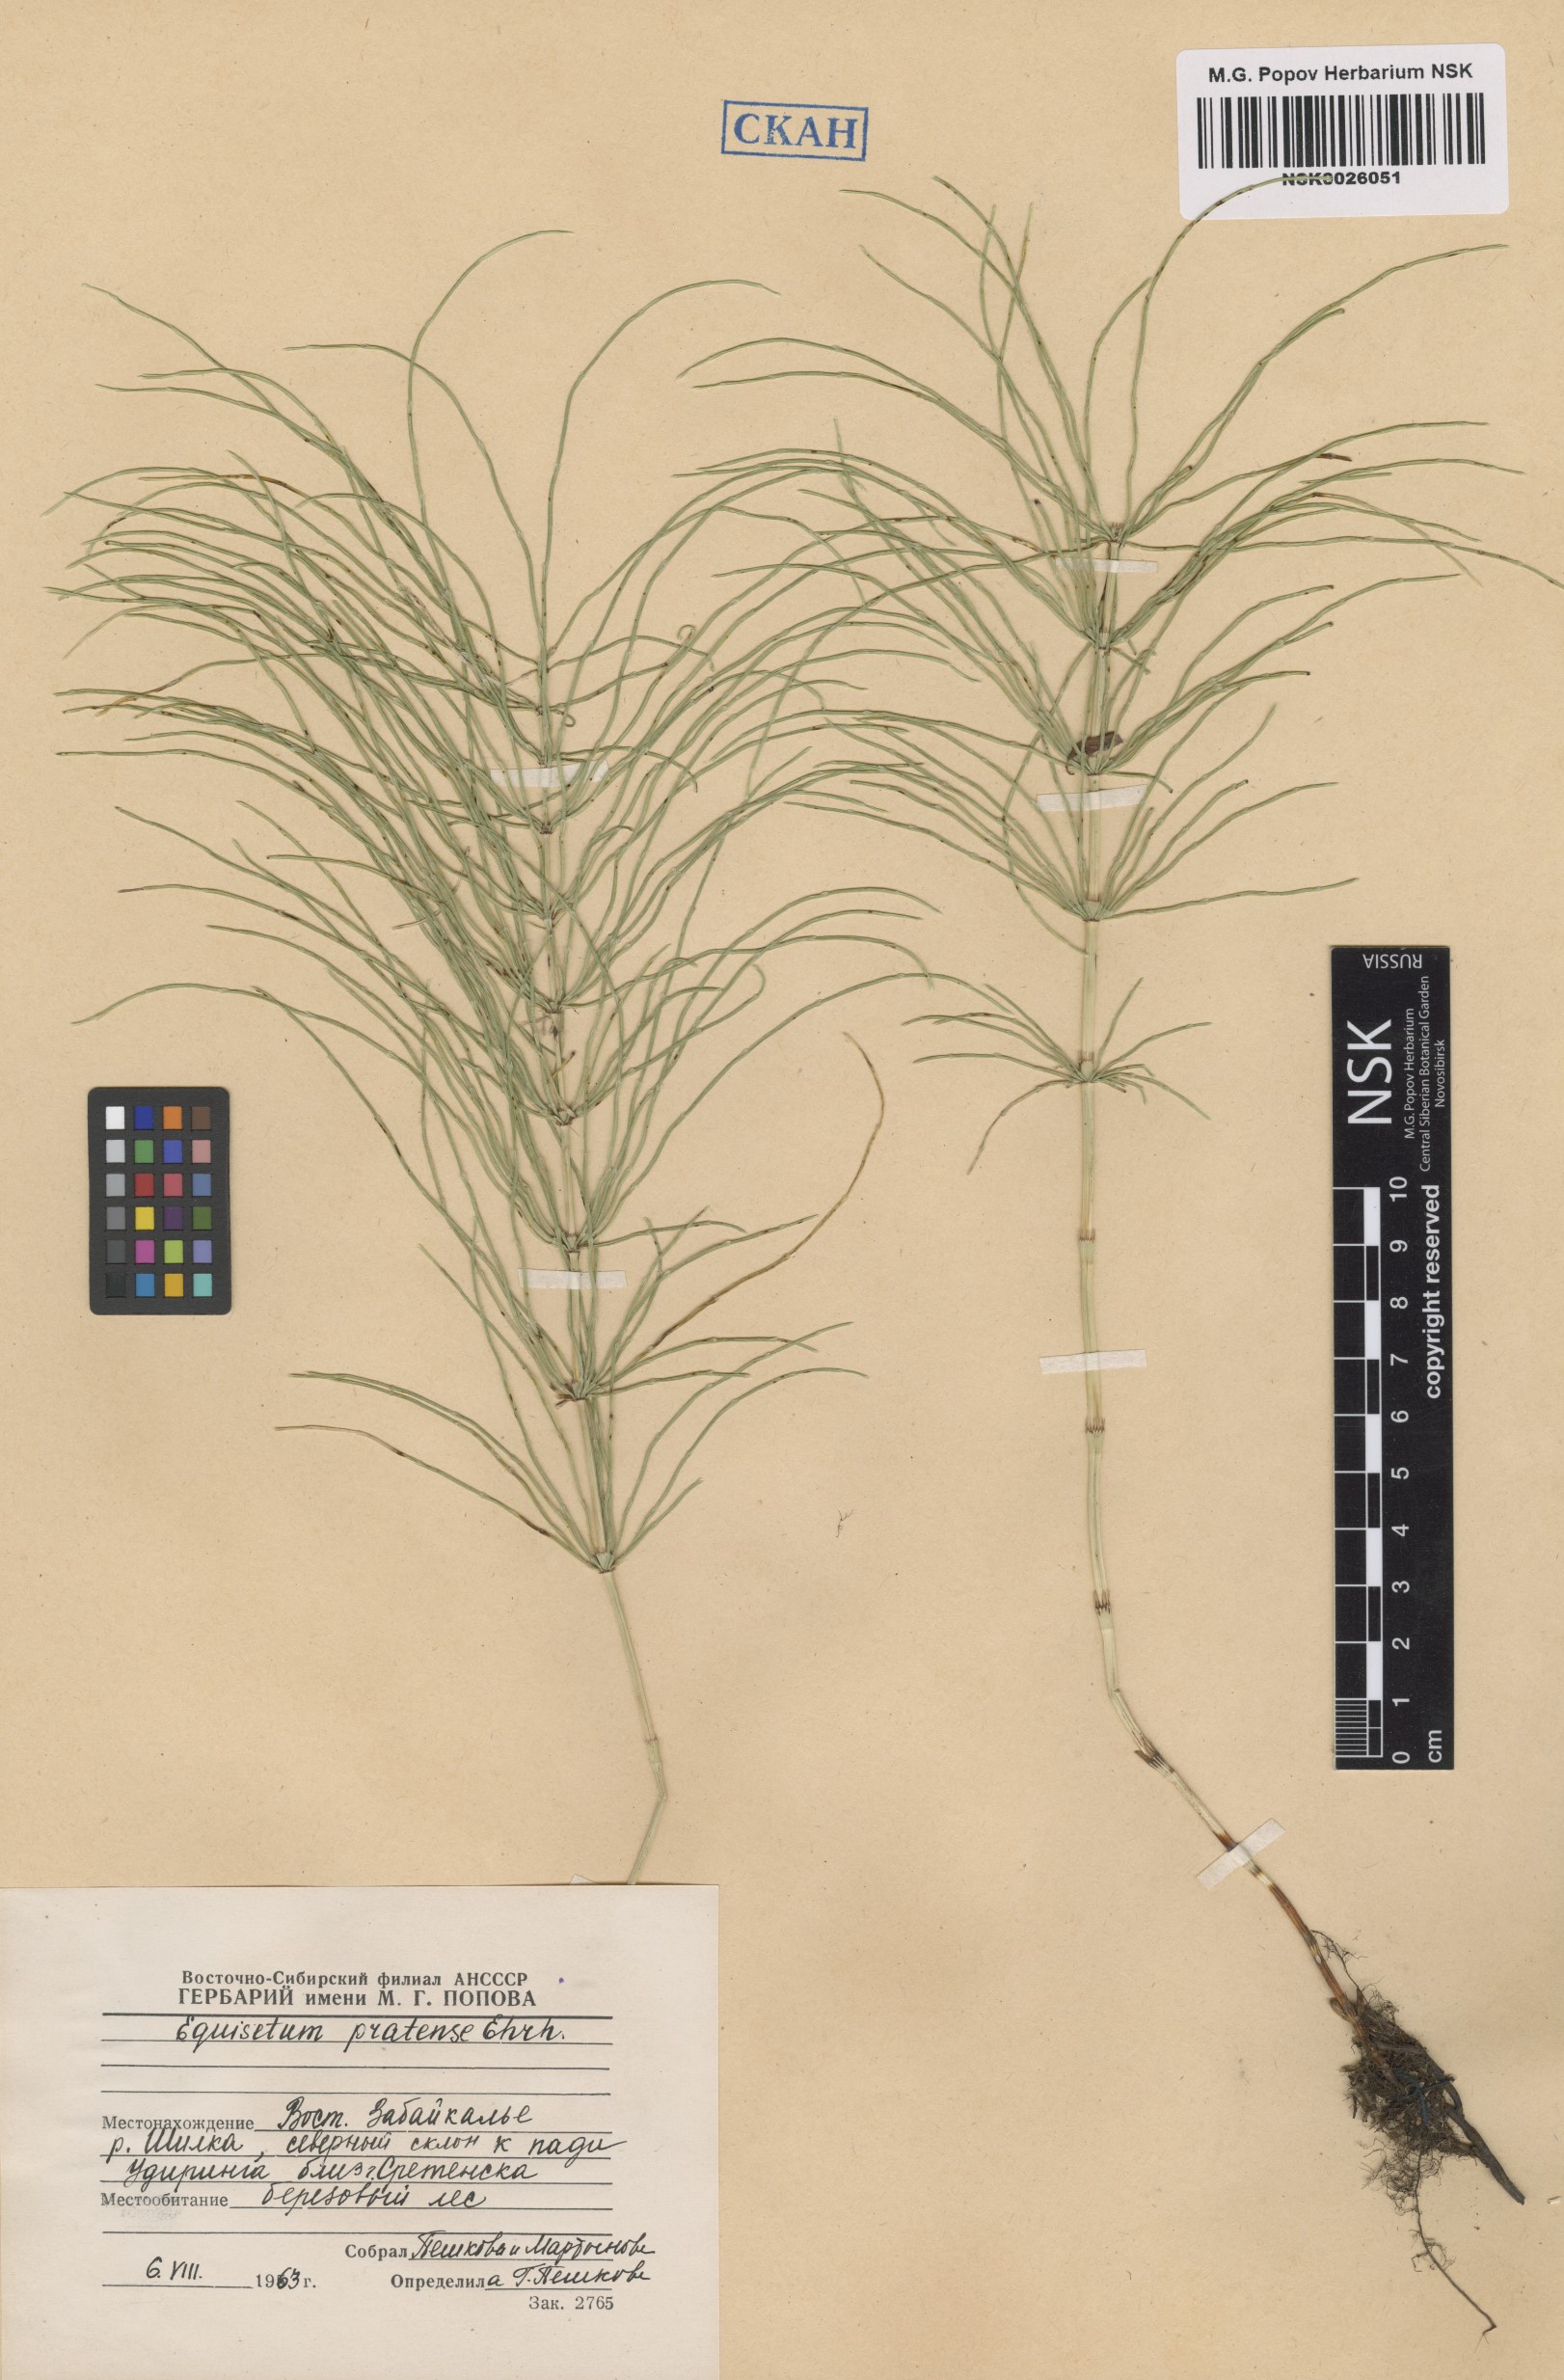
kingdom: Plantae
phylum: Tracheophyta
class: Polypodiopsida
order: Equisetales
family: Equisetaceae
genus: Equisetum
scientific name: Equisetum pratense
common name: Meadow horsetail
